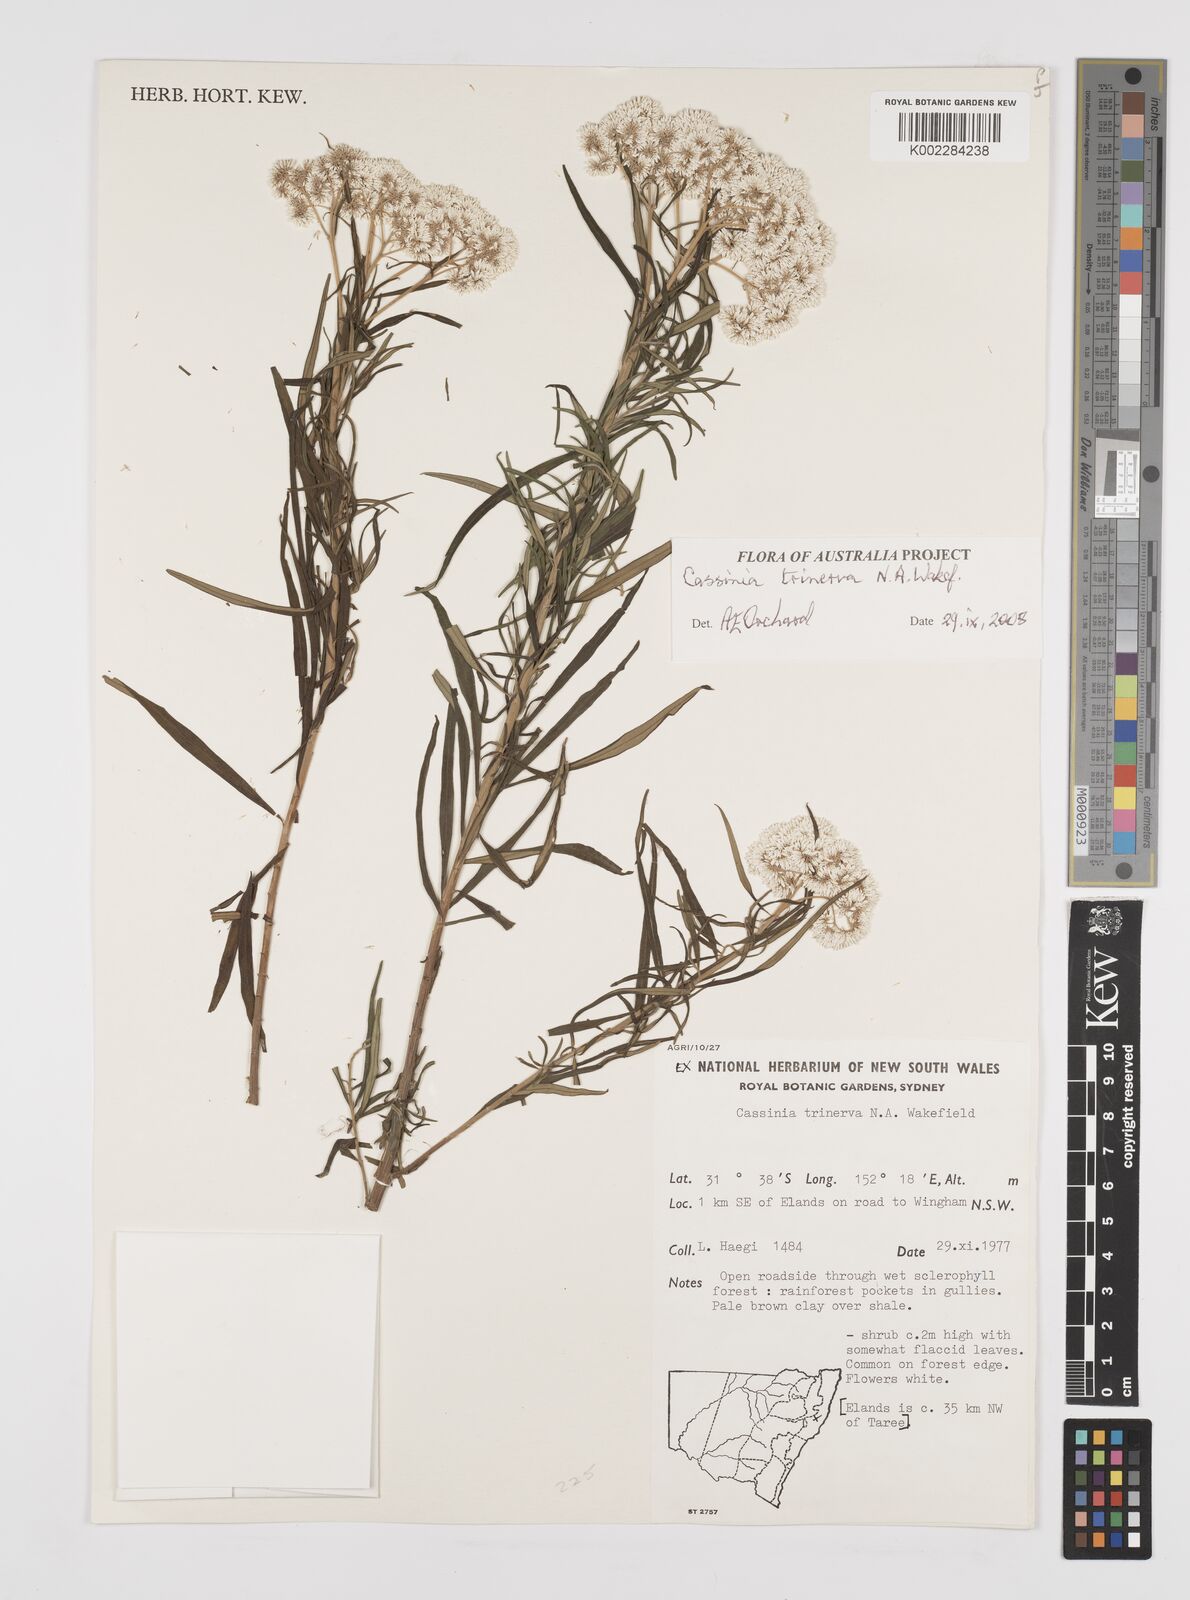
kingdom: Plantae
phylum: Tracheophyta
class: Magnoliopsida
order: Asterales
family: Asteraceae
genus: Cassinia
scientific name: Cassinia trinerva
